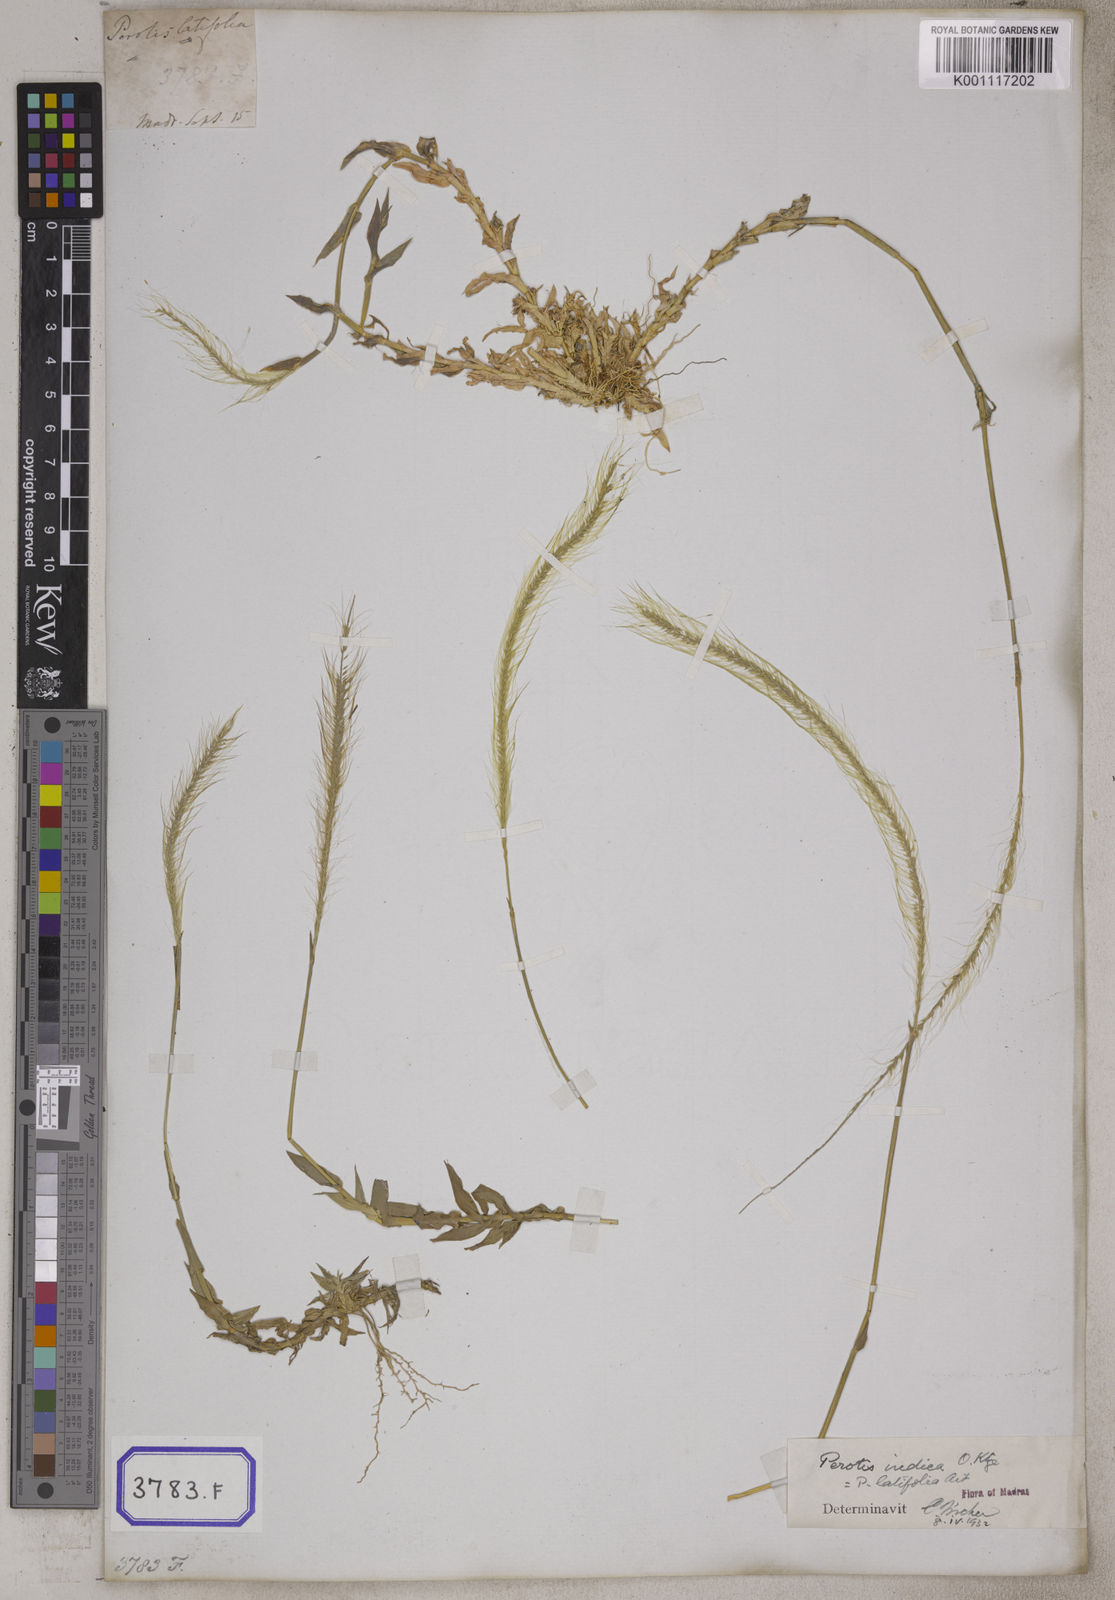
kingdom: Plantae
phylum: Tracheophyta
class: Liliopsida
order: Poales
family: Poaceae
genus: Perotis
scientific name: Perotis indica
